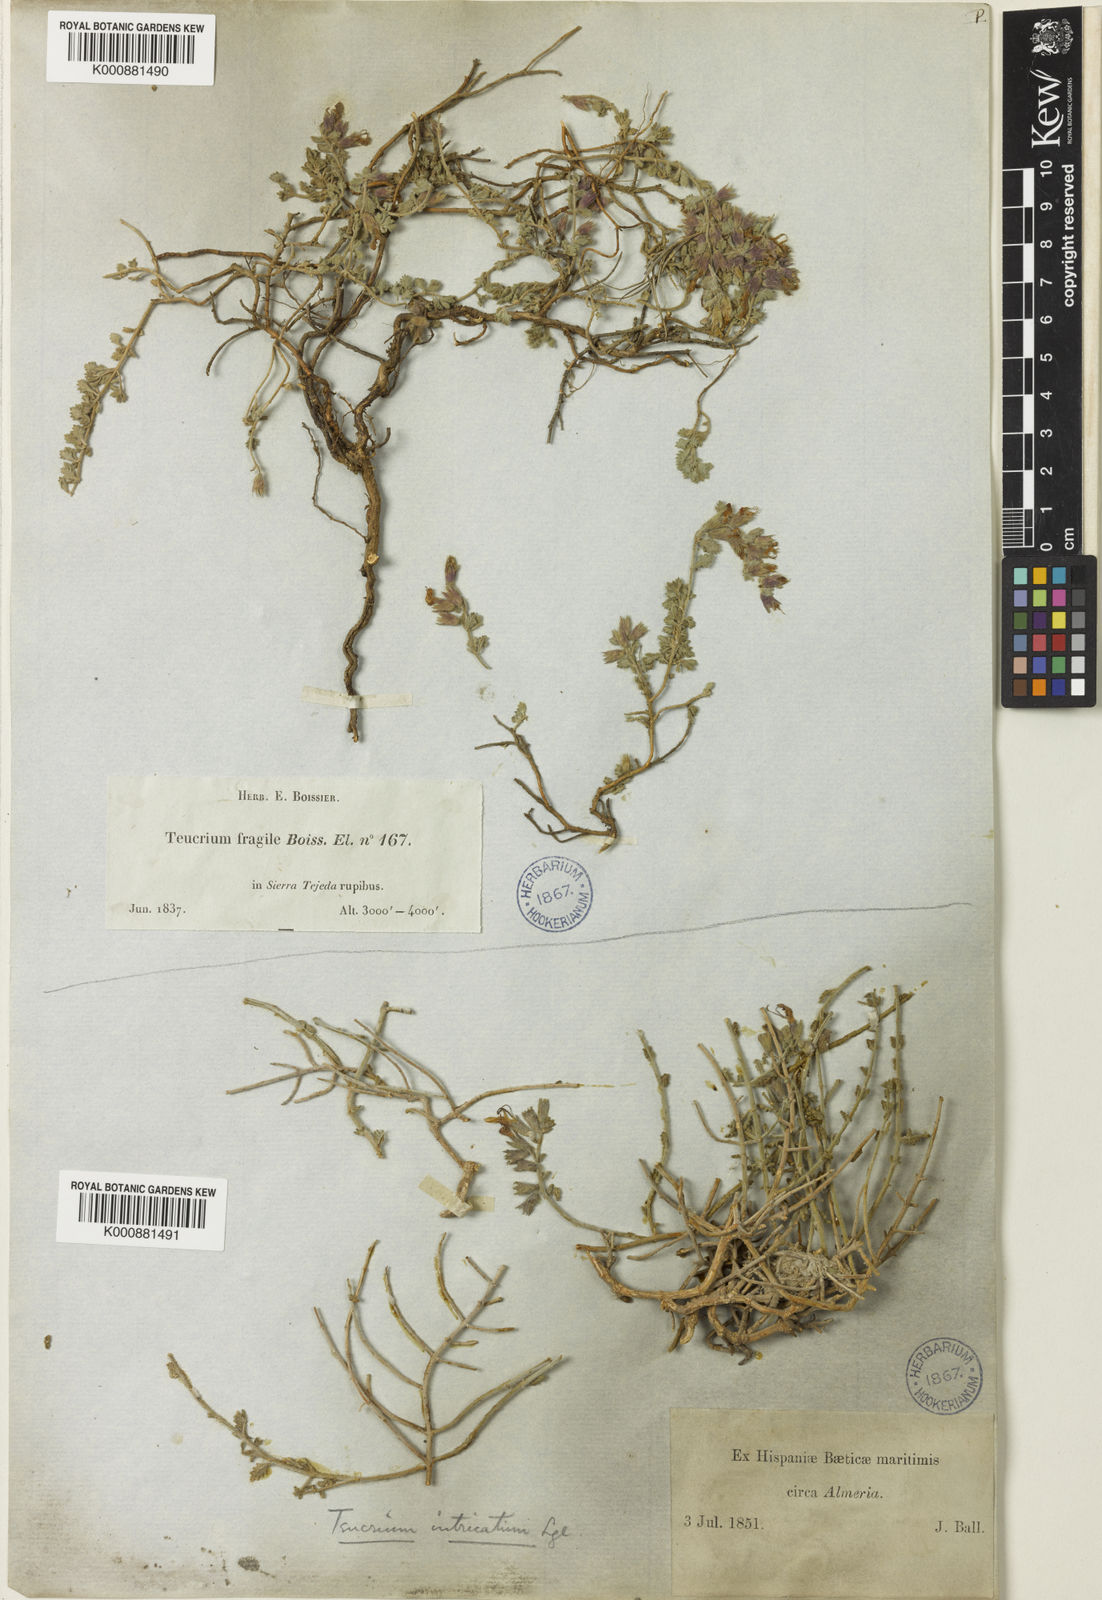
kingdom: Plantae
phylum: Tracheophyta
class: Magnoliopsida
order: Lamiales
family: Lamiaceae
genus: Teucrium
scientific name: Teucrium fragile
